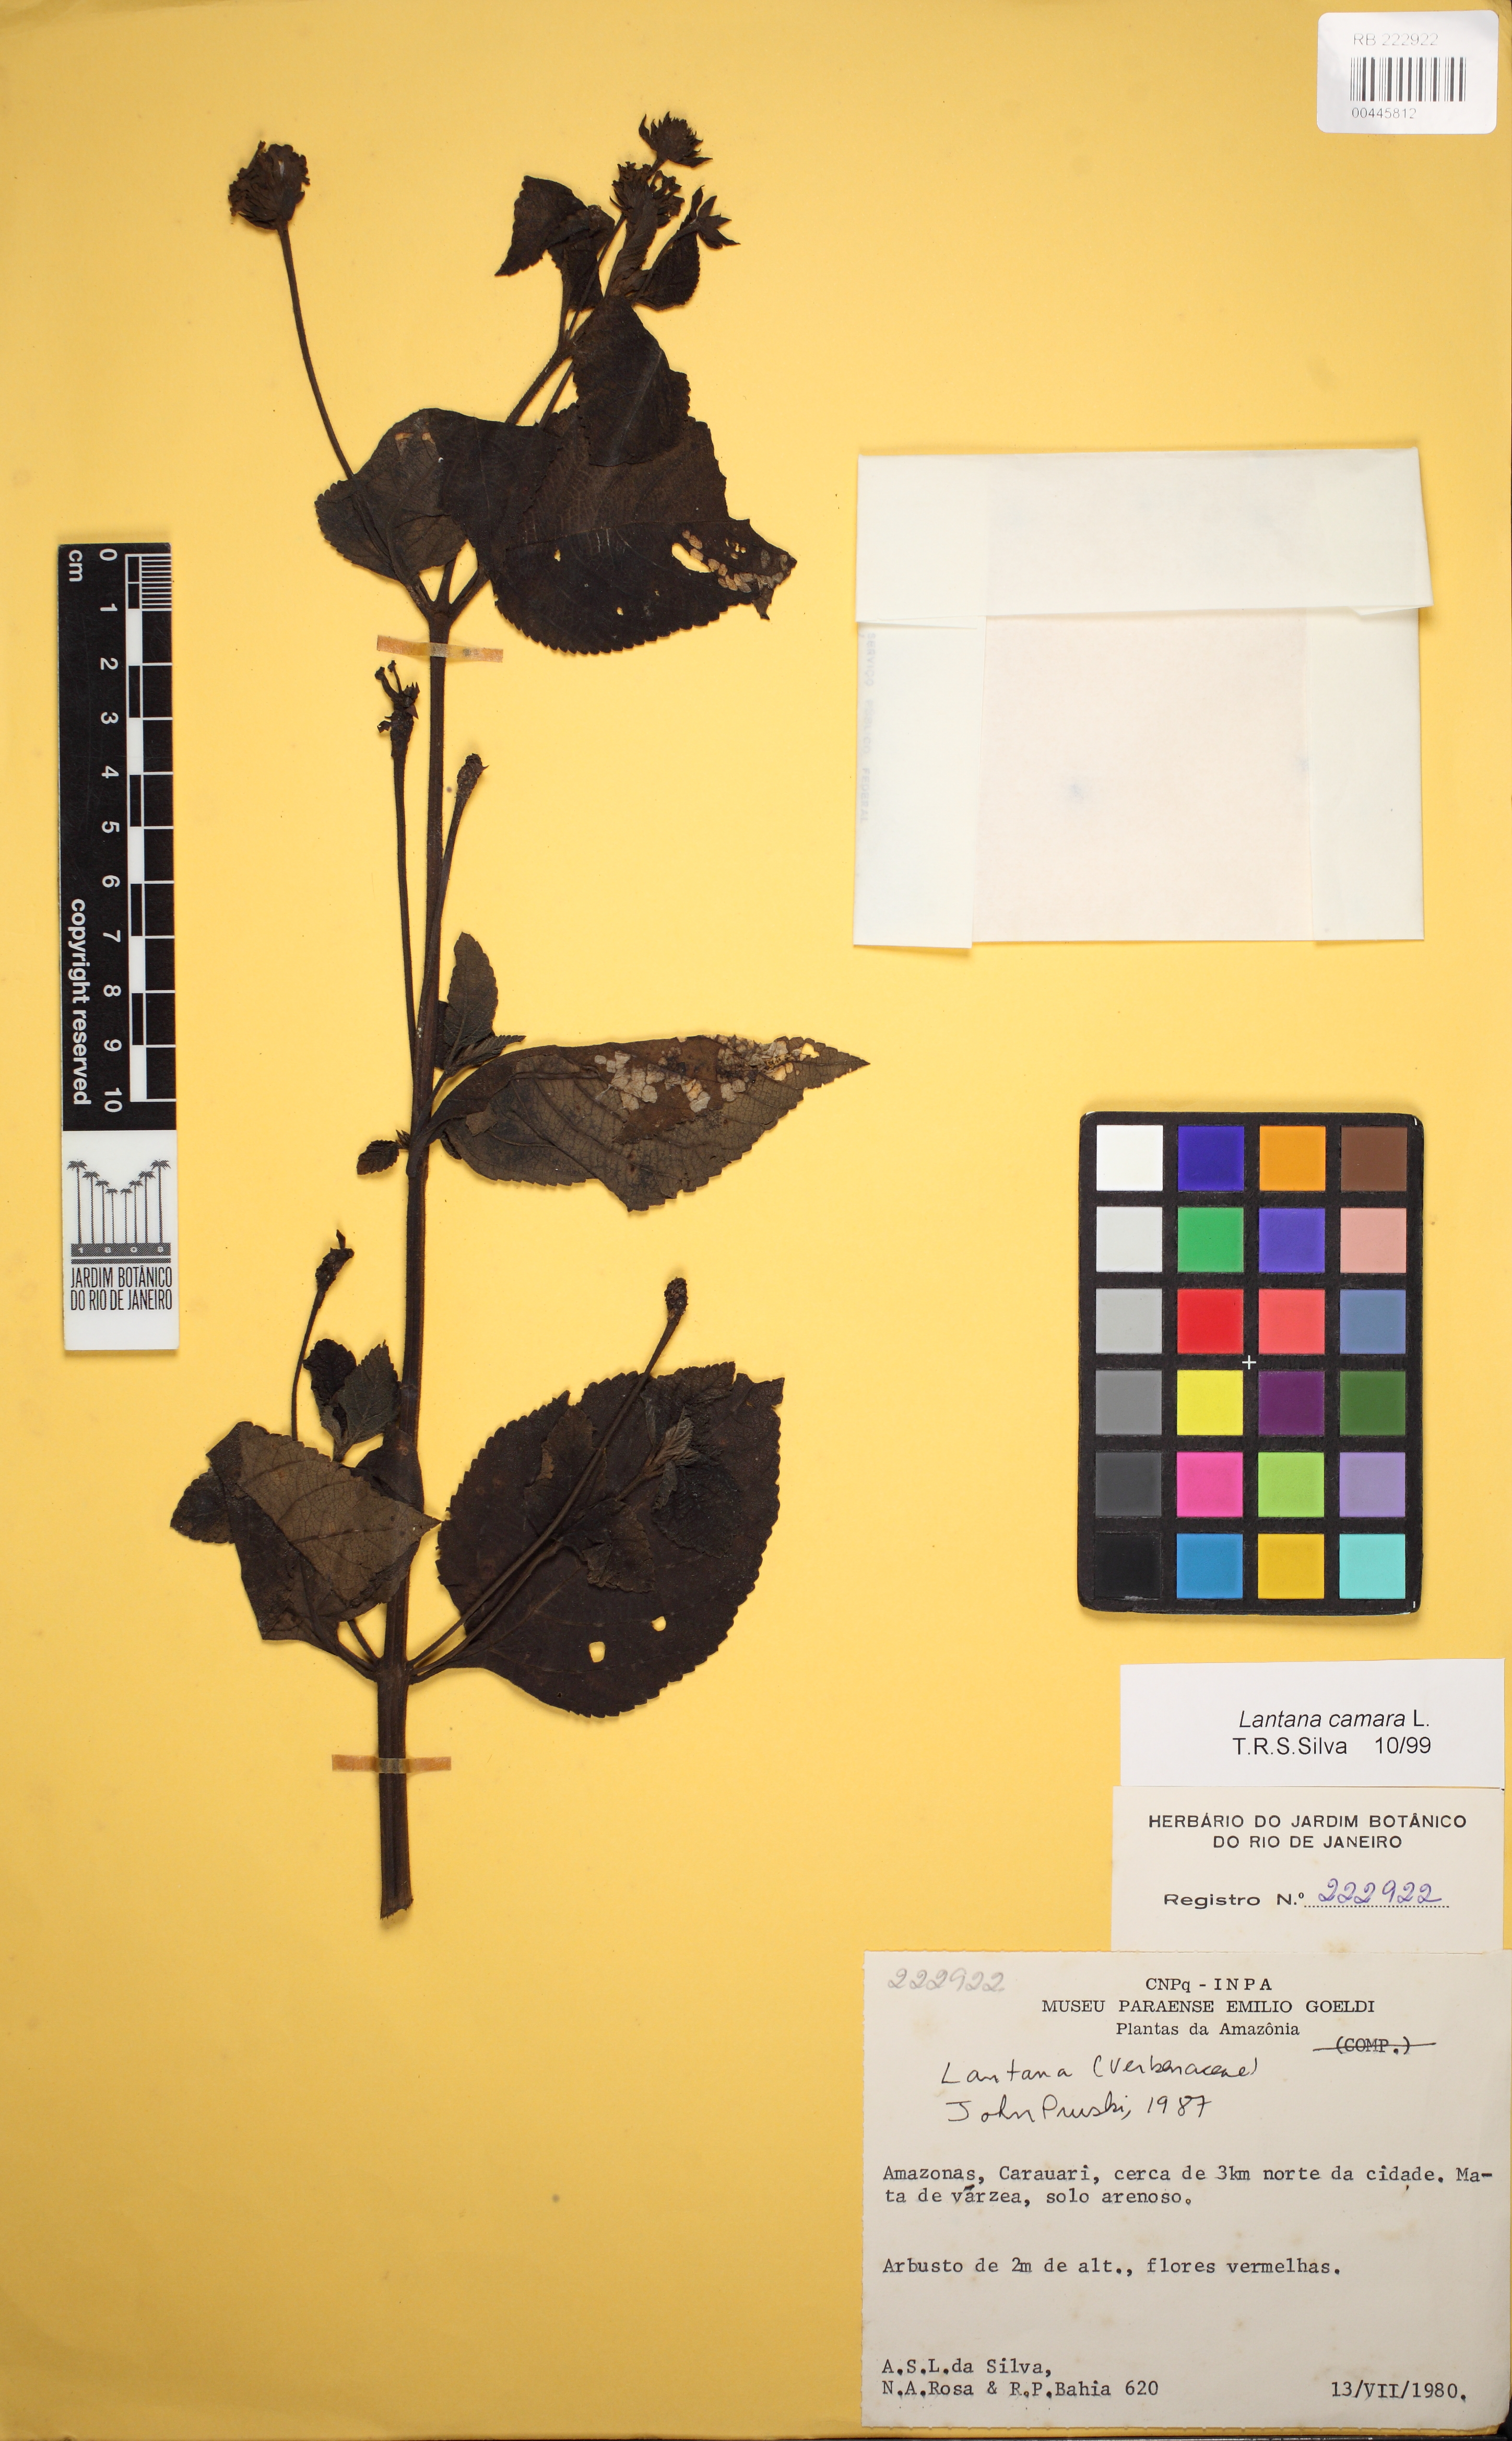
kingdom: Plantae
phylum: Tracheophyta
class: Magnoliopsida
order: Lamiales
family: Verbenaceae
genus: Lantana
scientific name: Lantana camara
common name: Lantana
